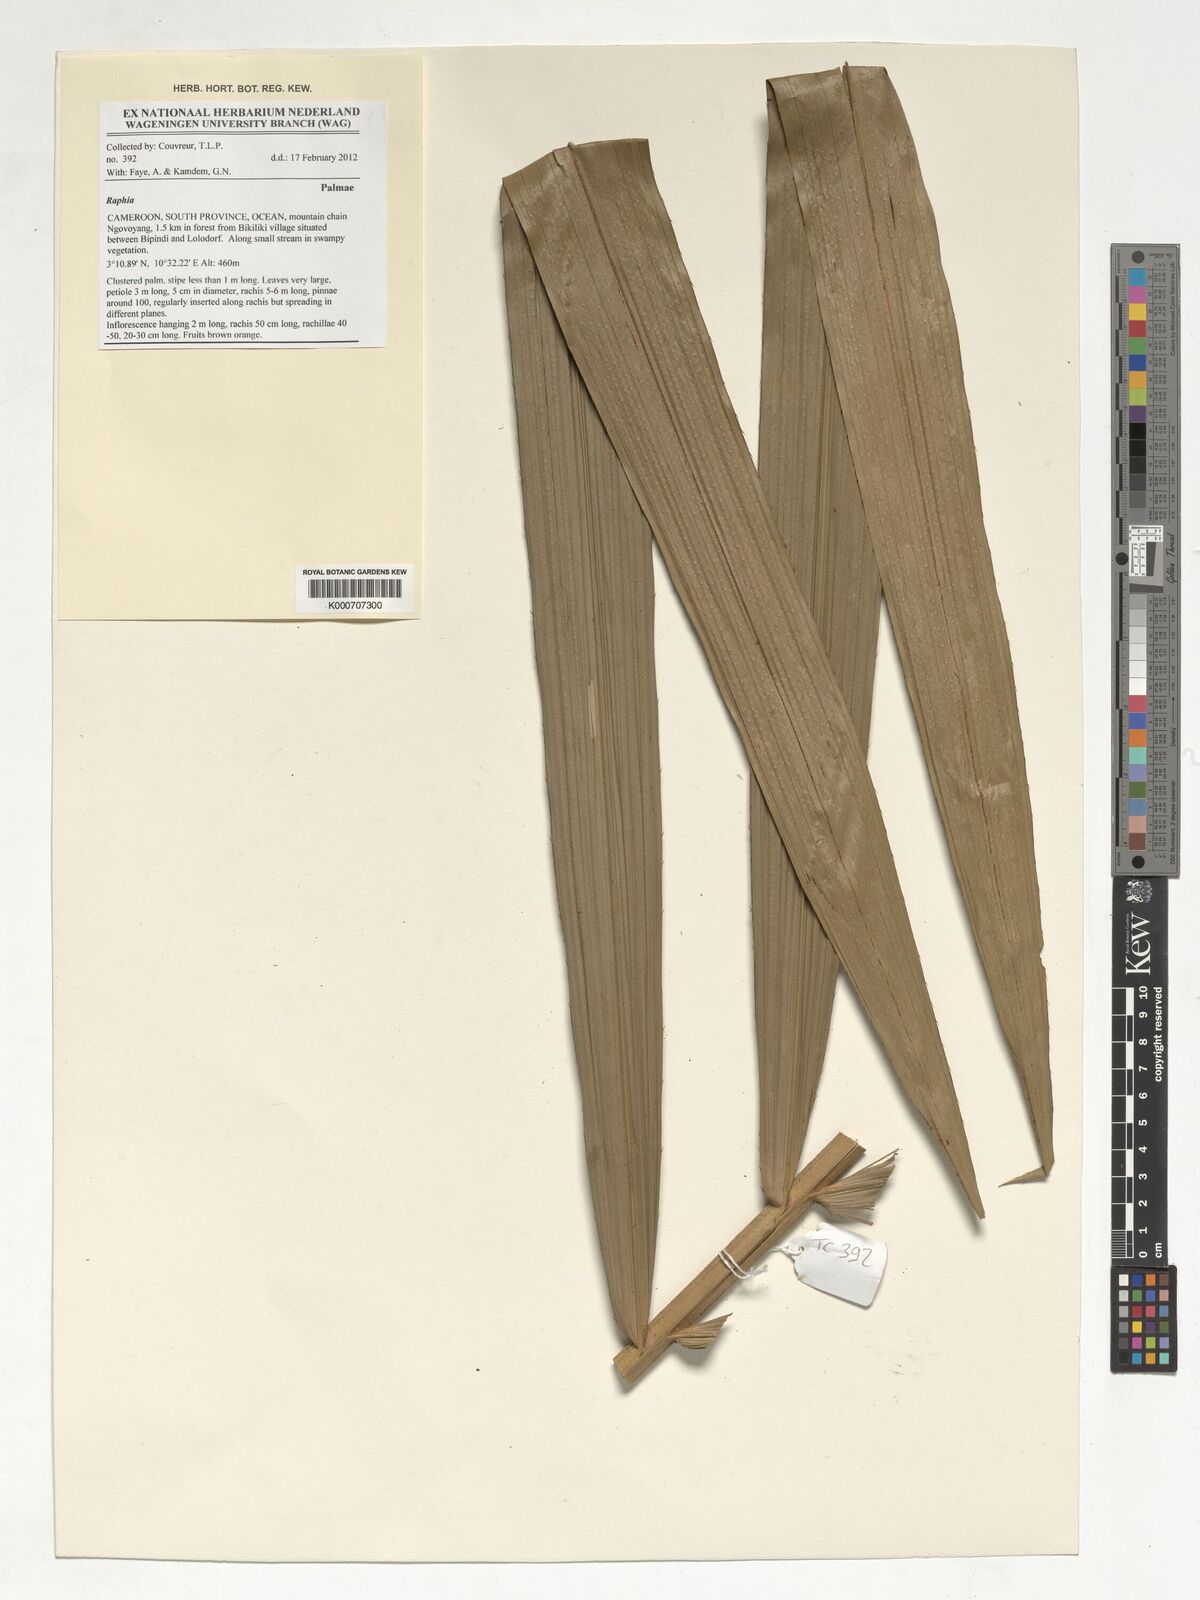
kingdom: Plantae
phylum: Tracheophyta
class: Liliopsida
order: Arecales
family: Arecaceae
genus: Raphia
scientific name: Raphia
